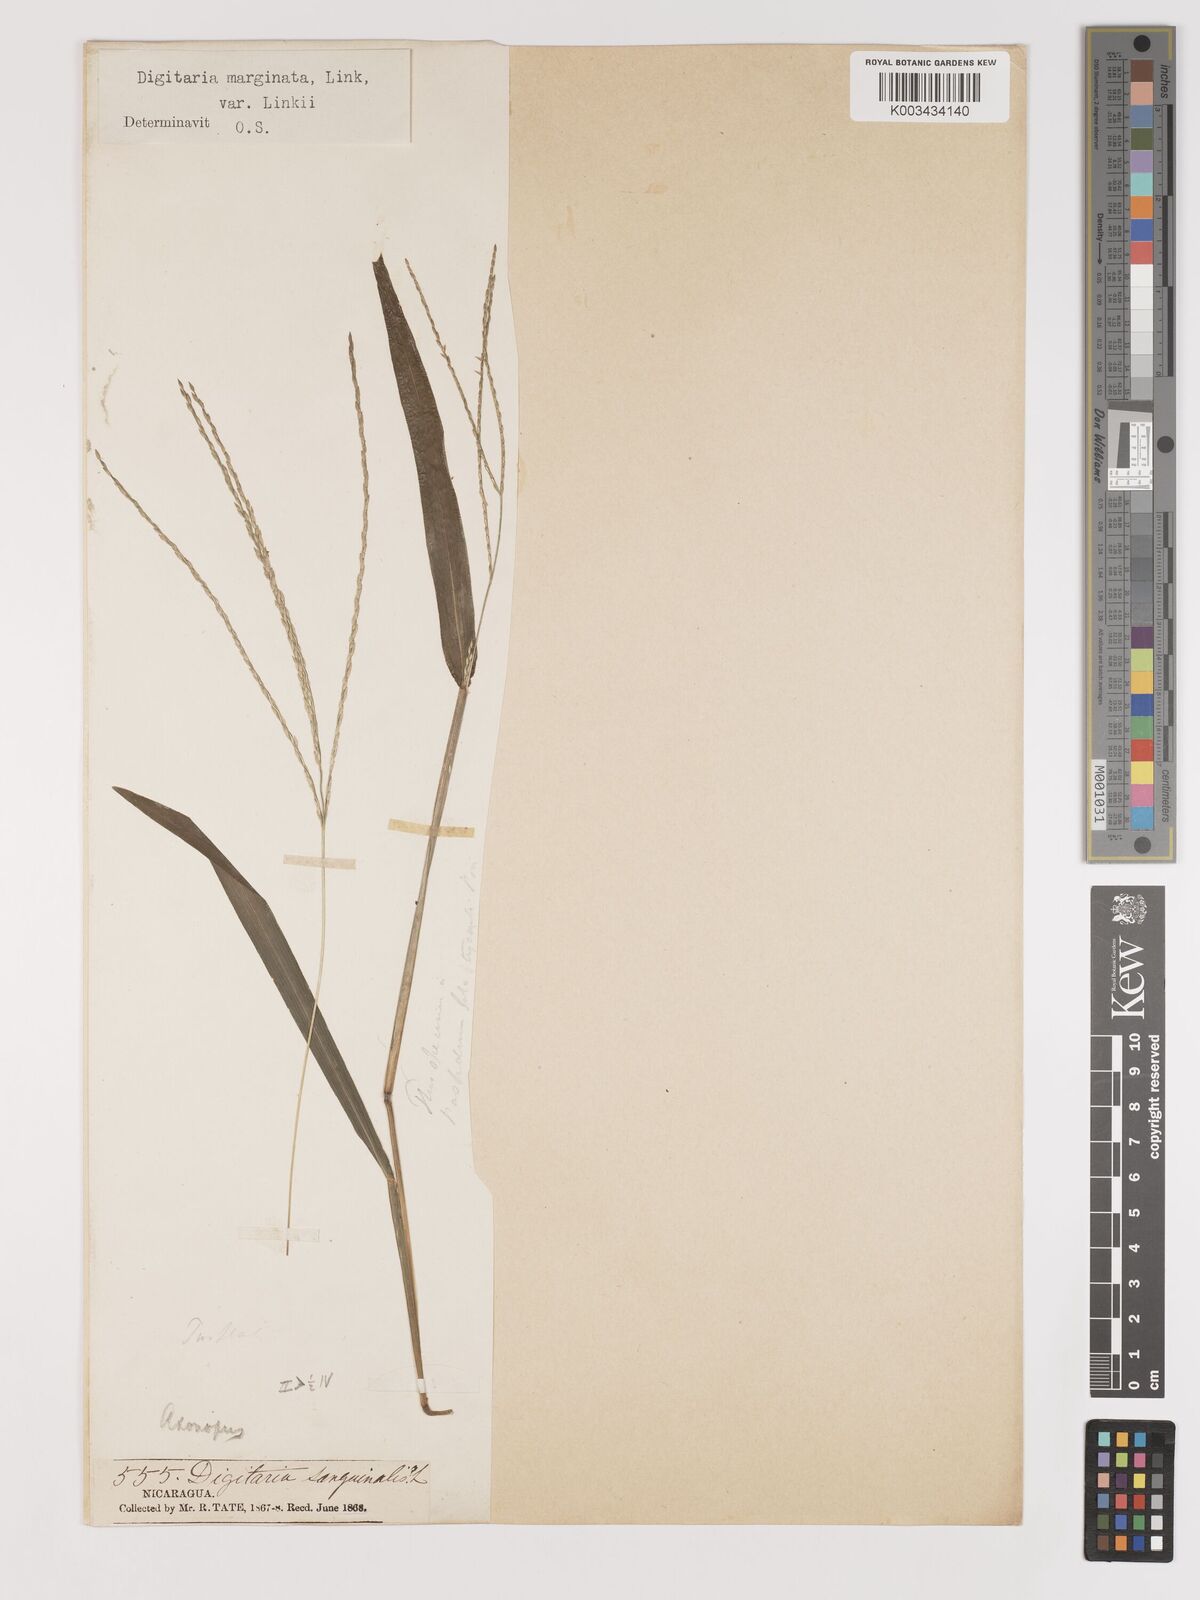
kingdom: Plantae
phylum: Tracheophyta
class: Liliopsida
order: Poales
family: Poaceae
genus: Digitaria
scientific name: Digitaria ciliaris
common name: Tropical finger-grass
